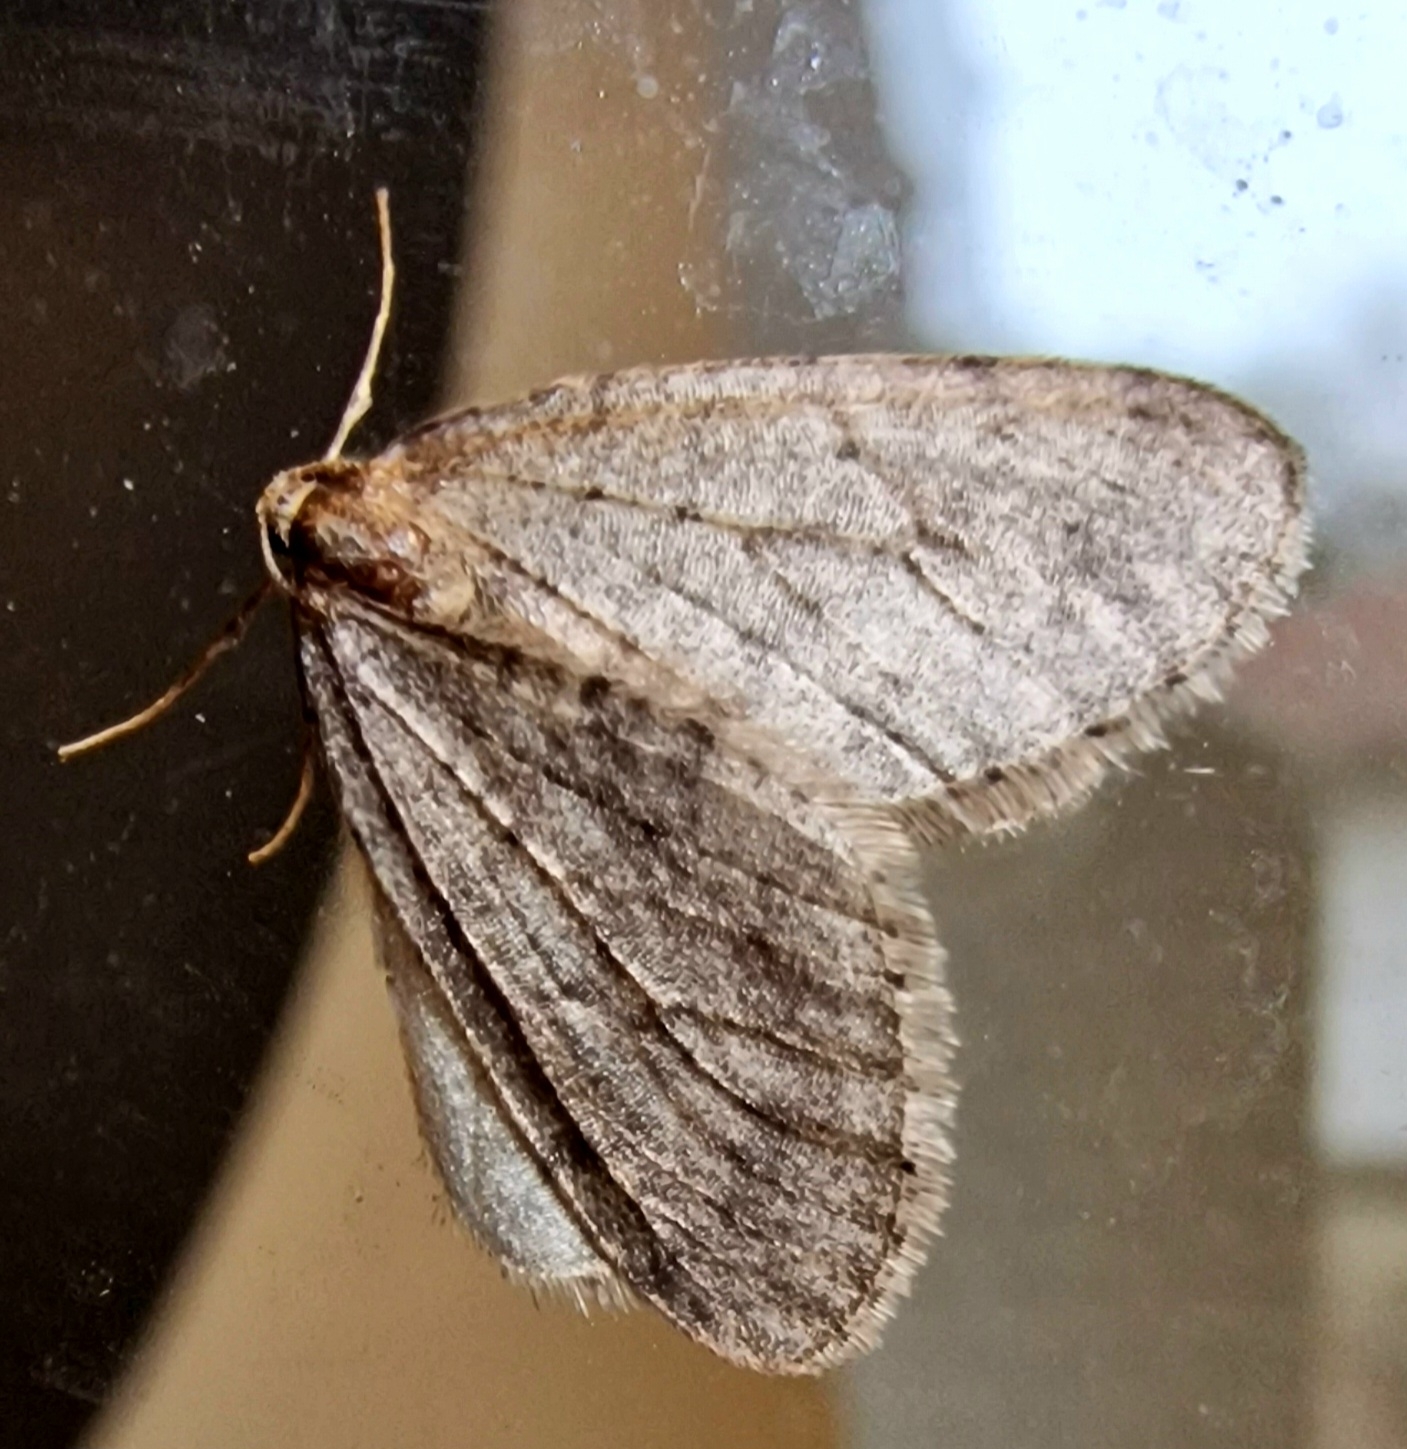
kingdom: Animalia
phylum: Arthropoda
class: Insecta
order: Lepidoptera
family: Geometridae
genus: Operophtera
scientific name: Operophtera brumata
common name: Lille frostmåler
